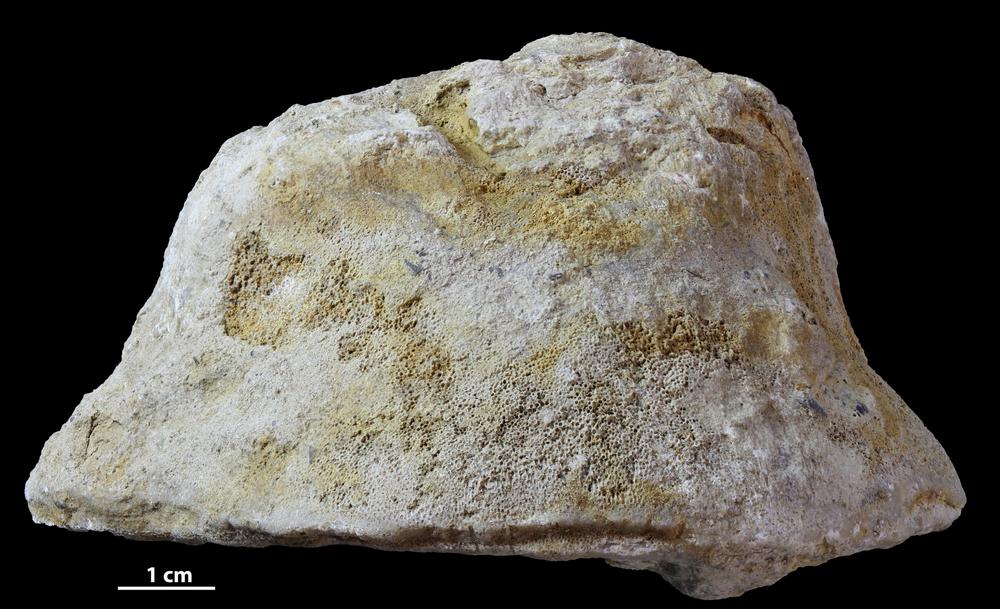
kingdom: Animalia
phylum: Bryozoa
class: Stenolaemata
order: Trepostomatida
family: Diplotrypidae
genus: Diplotrypa
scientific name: Diplotrypa
